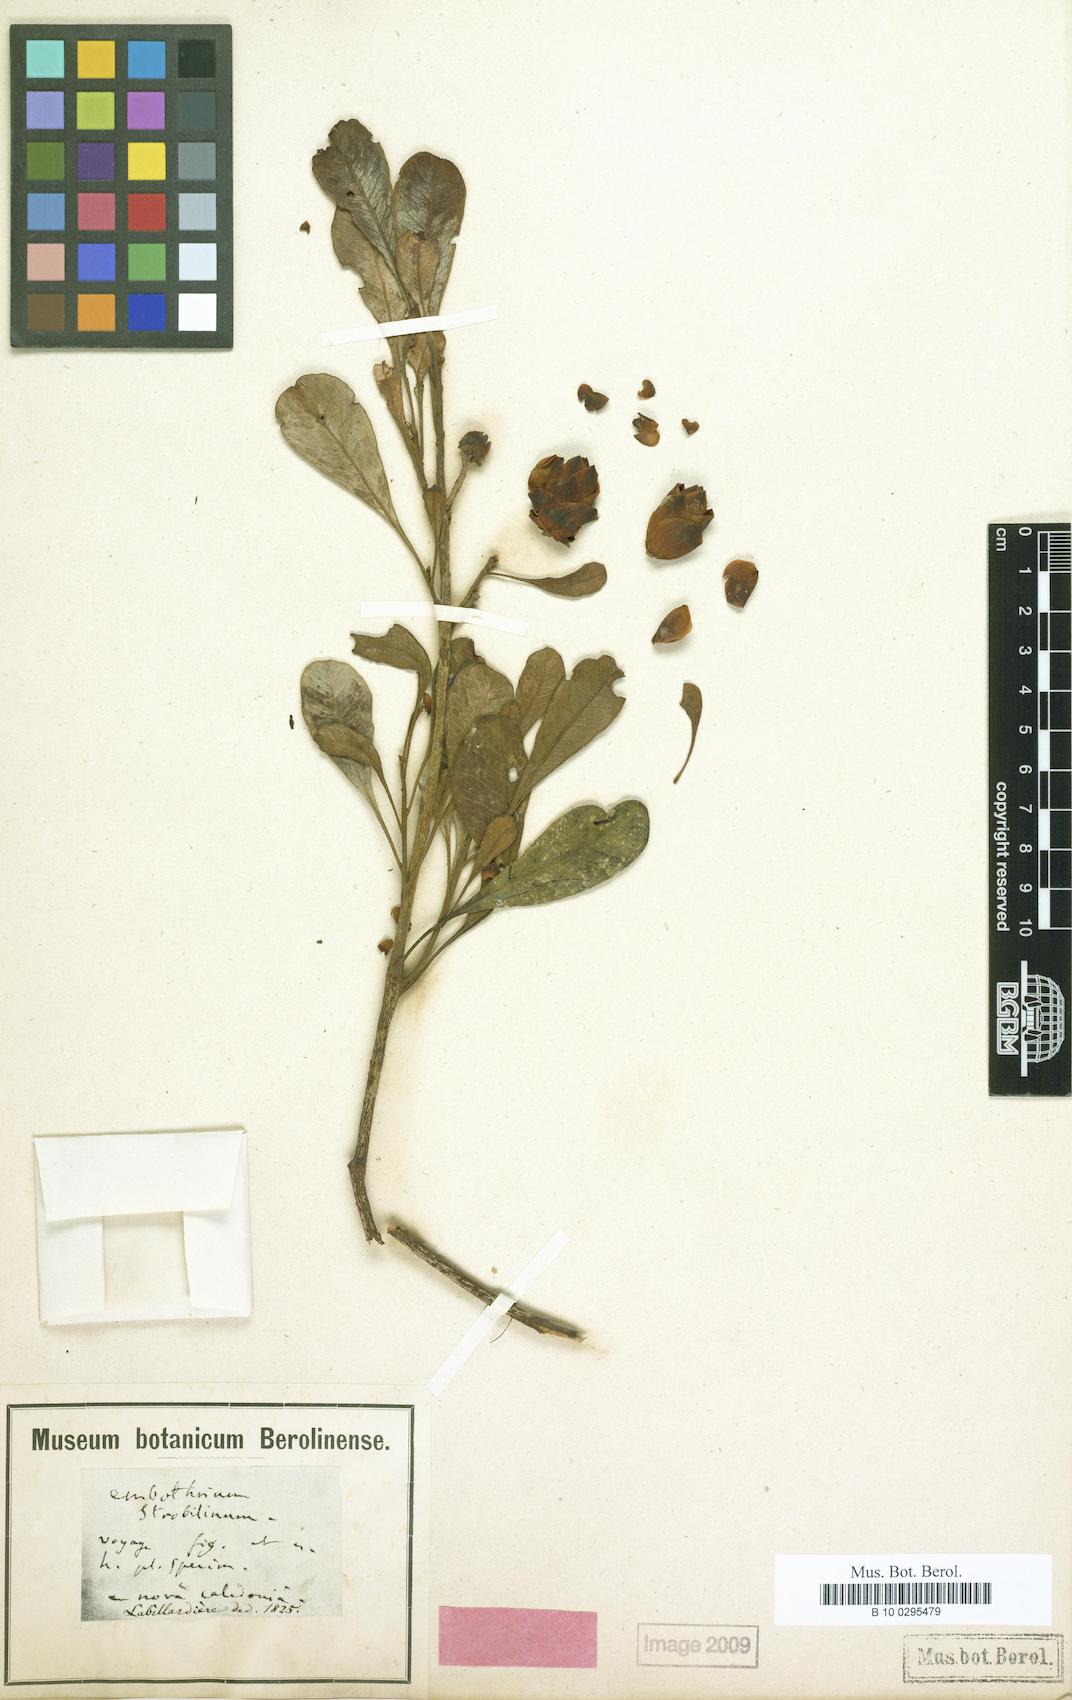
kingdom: Plantae
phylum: Tracheophyta
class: Magnoliopsida
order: Proteales
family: Proteaceae
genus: Eucarpha
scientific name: Eucarpha strobilina
